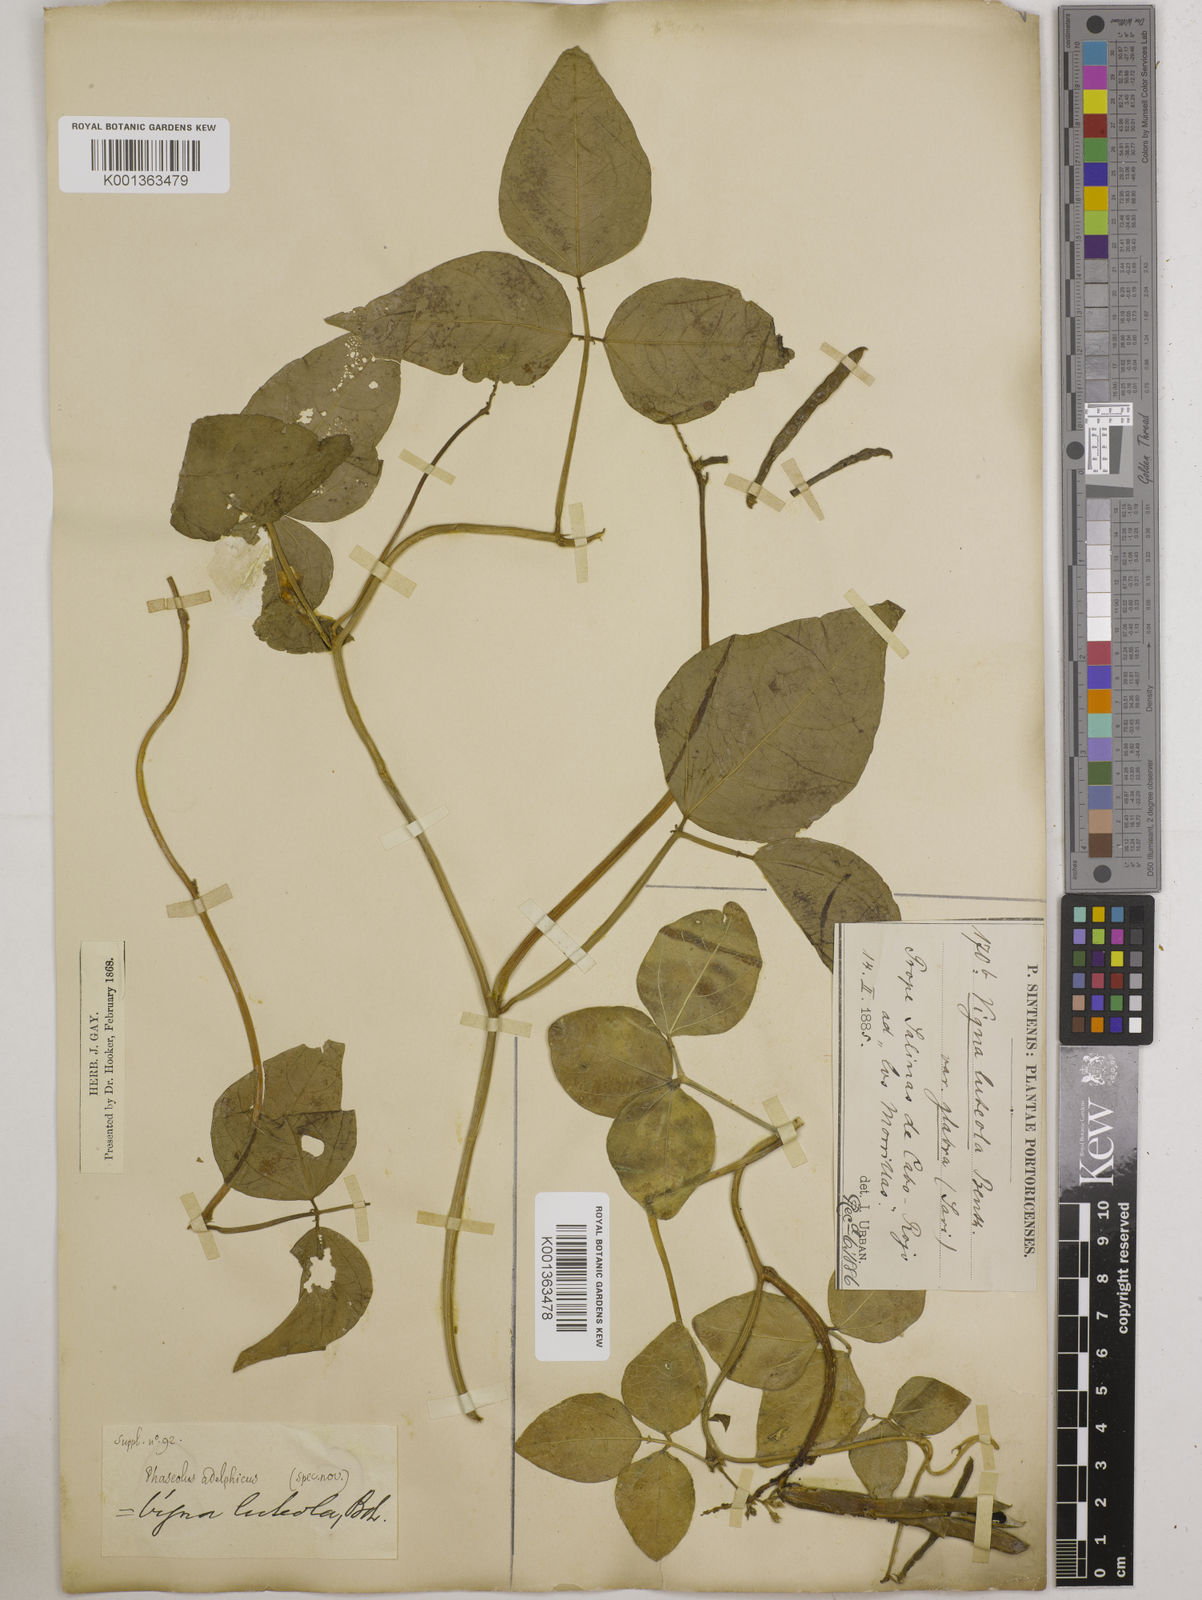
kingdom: Plantae
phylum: Tracheophyta
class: Magnoliopsida
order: Fabales
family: Fabaceae
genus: Vigna
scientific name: Vigna luteola
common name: Hairypod cowpea
